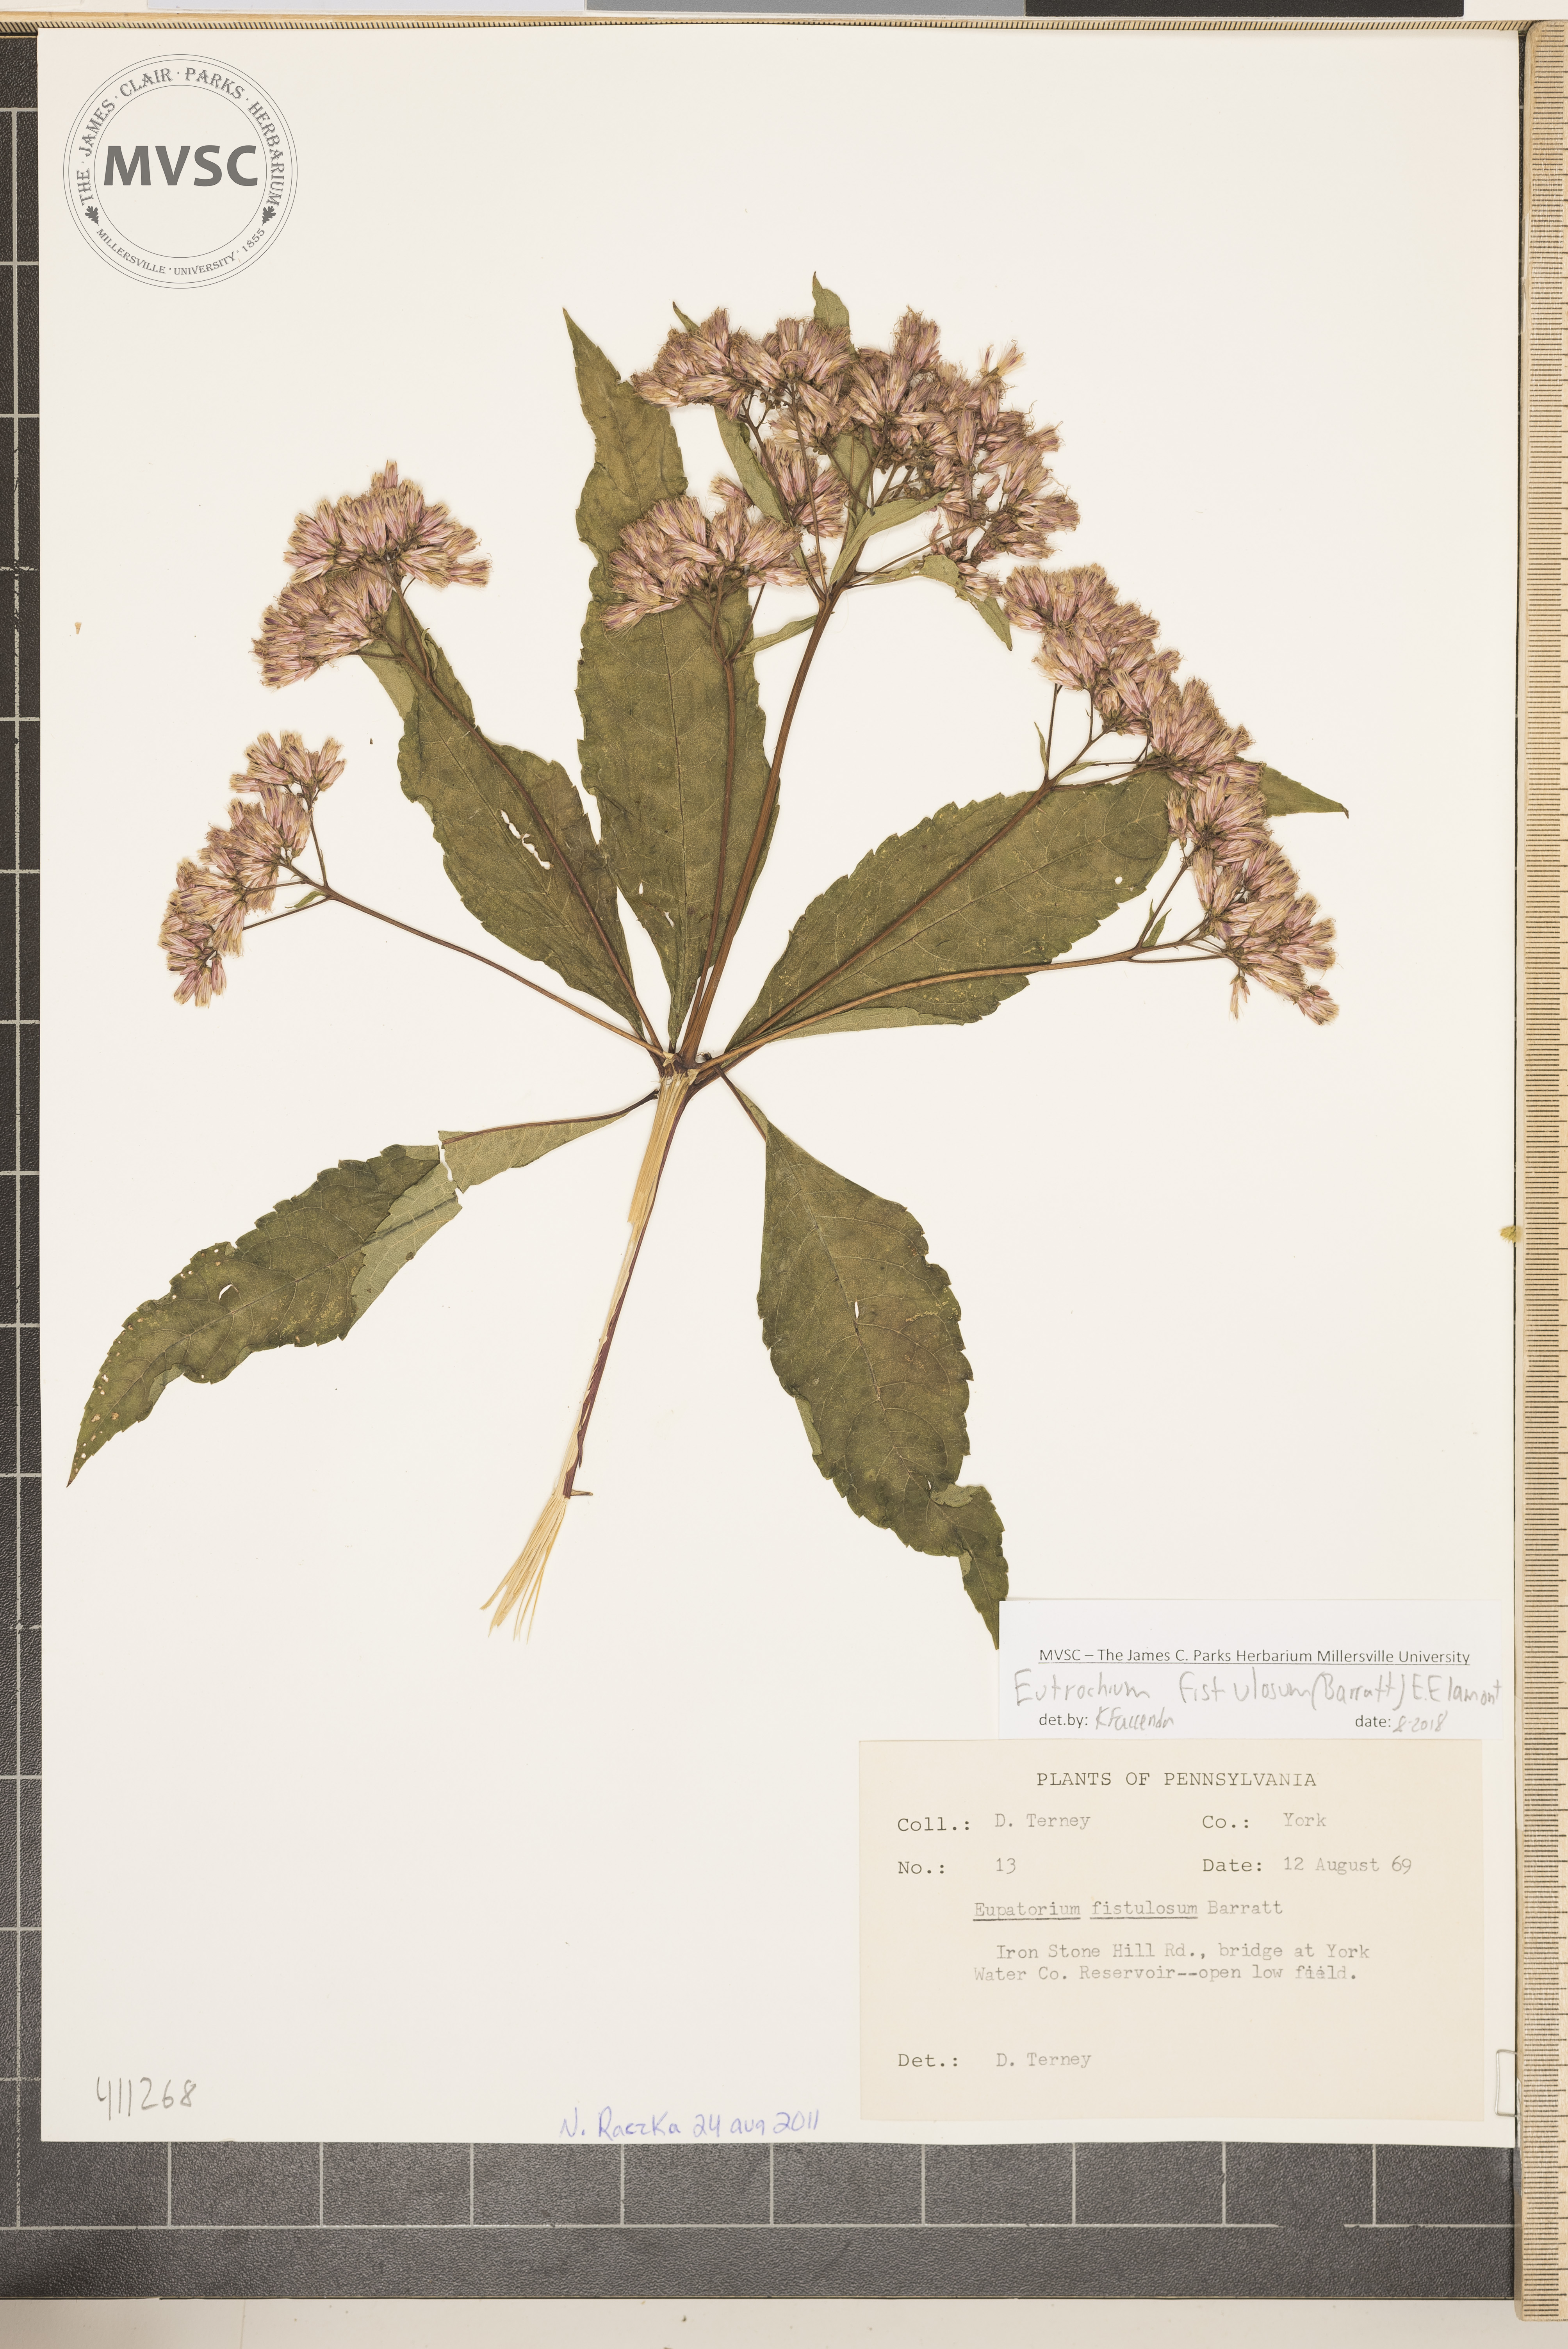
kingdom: Plantae
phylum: Tracheophyta
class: Magnoliopsida
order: Asterales
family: Asteraceae
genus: Eutrochium
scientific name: Eutrochium fistulosum
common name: Joe-pye-weed
